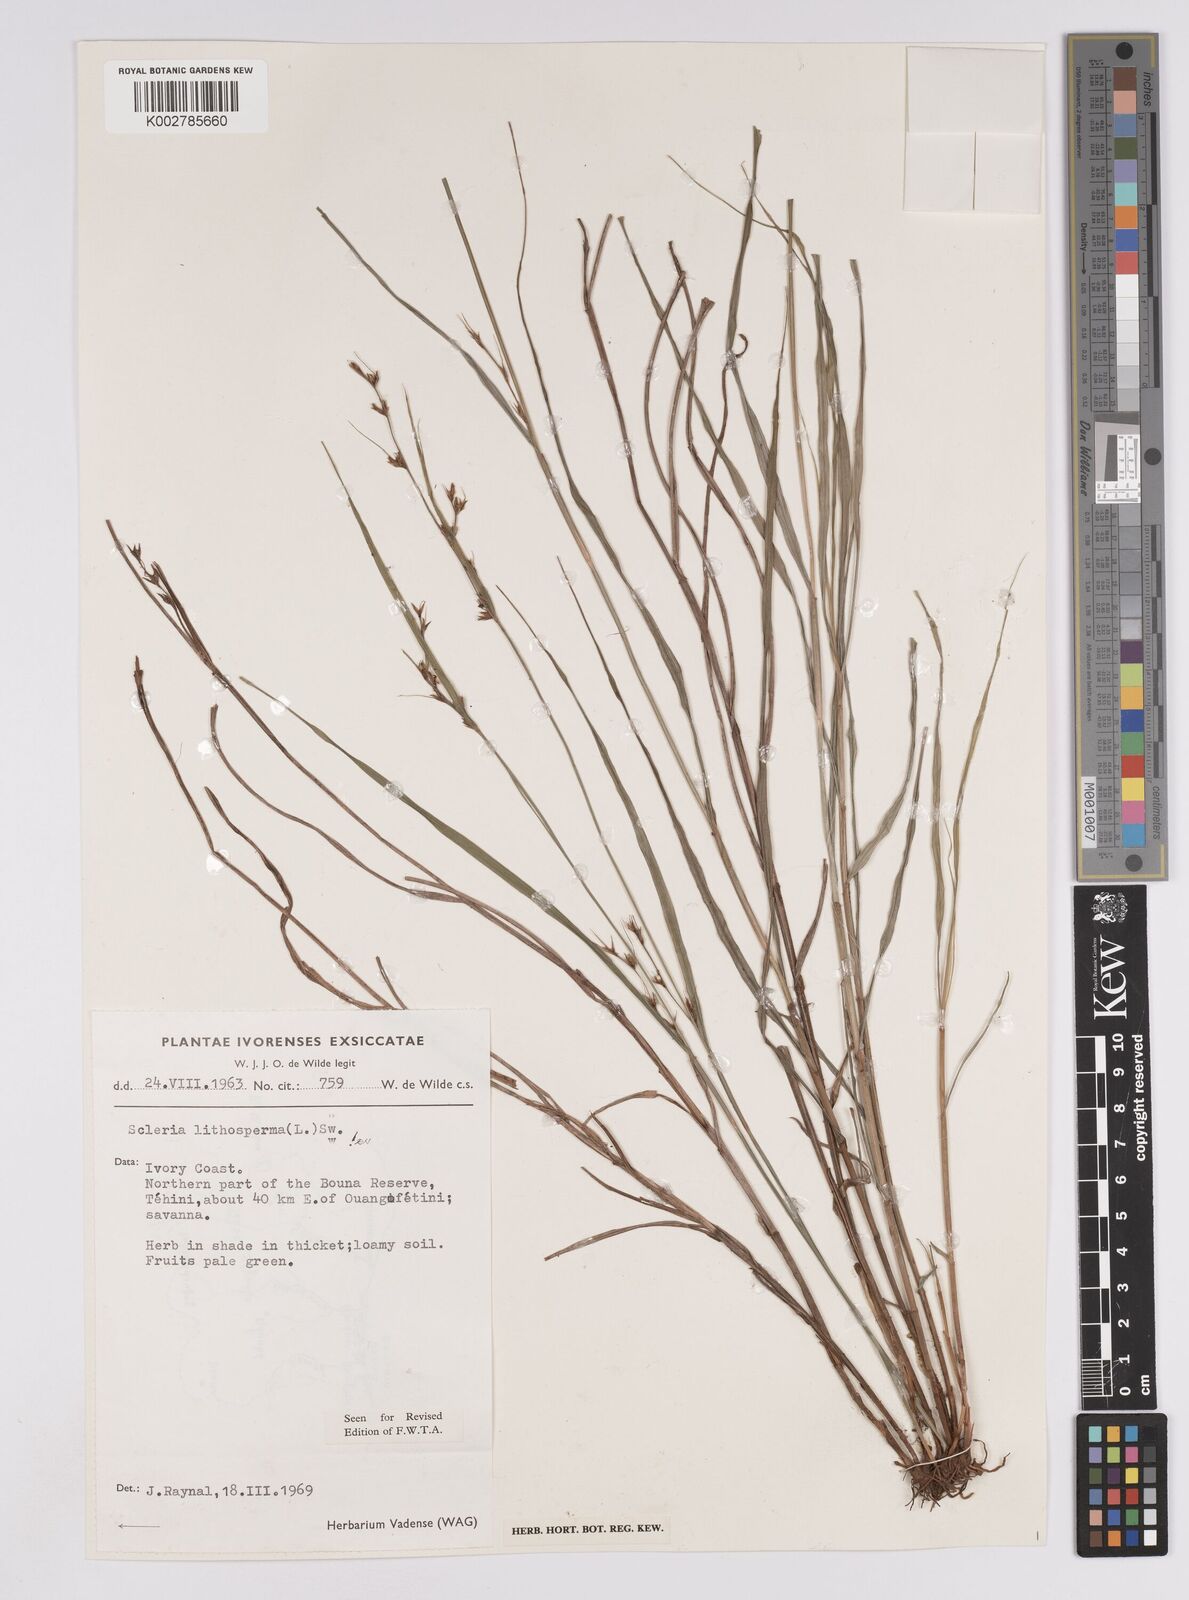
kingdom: Plantae
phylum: Tracheophyta
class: Liliopsida
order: Poales
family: Cyperaceae
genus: Scleria
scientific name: Scleria lithosperma
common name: Florida keys nut-rush
